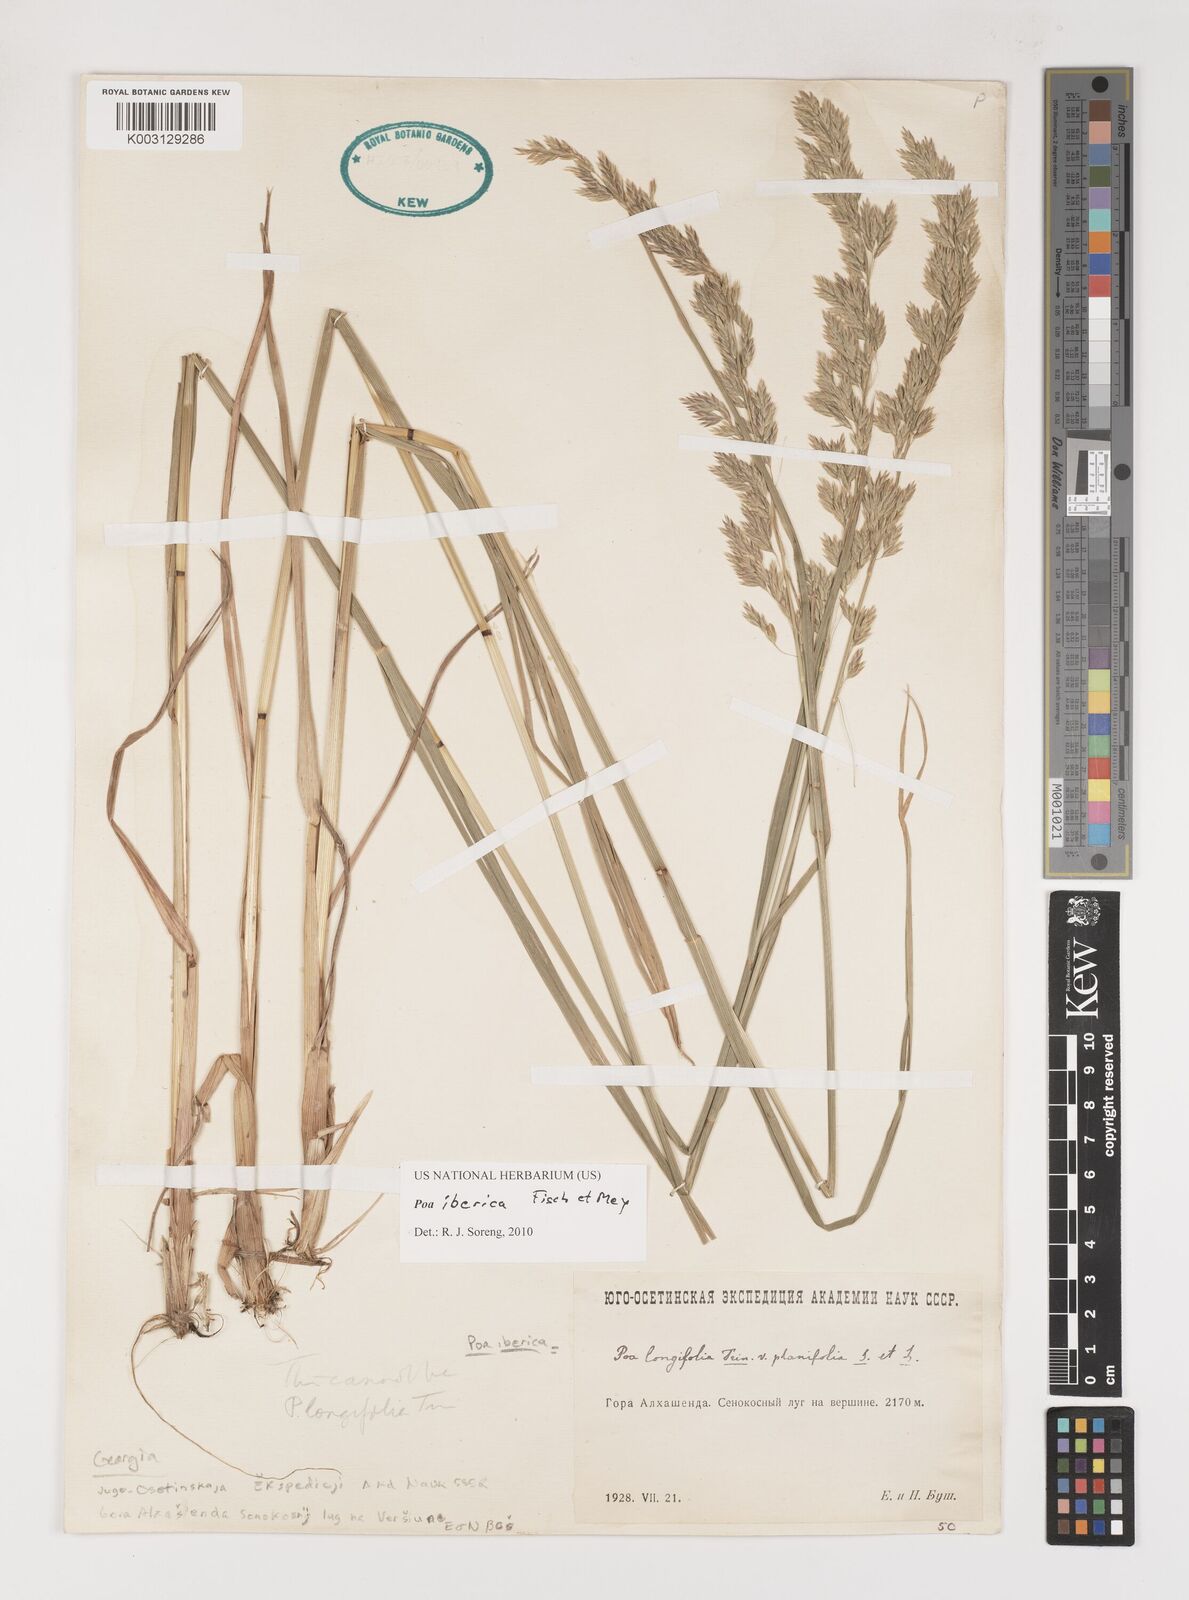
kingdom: Plantae
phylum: Tracheophyta
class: Liliopsida
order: Poales
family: Poaceae
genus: Poa
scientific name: Poa iberica
